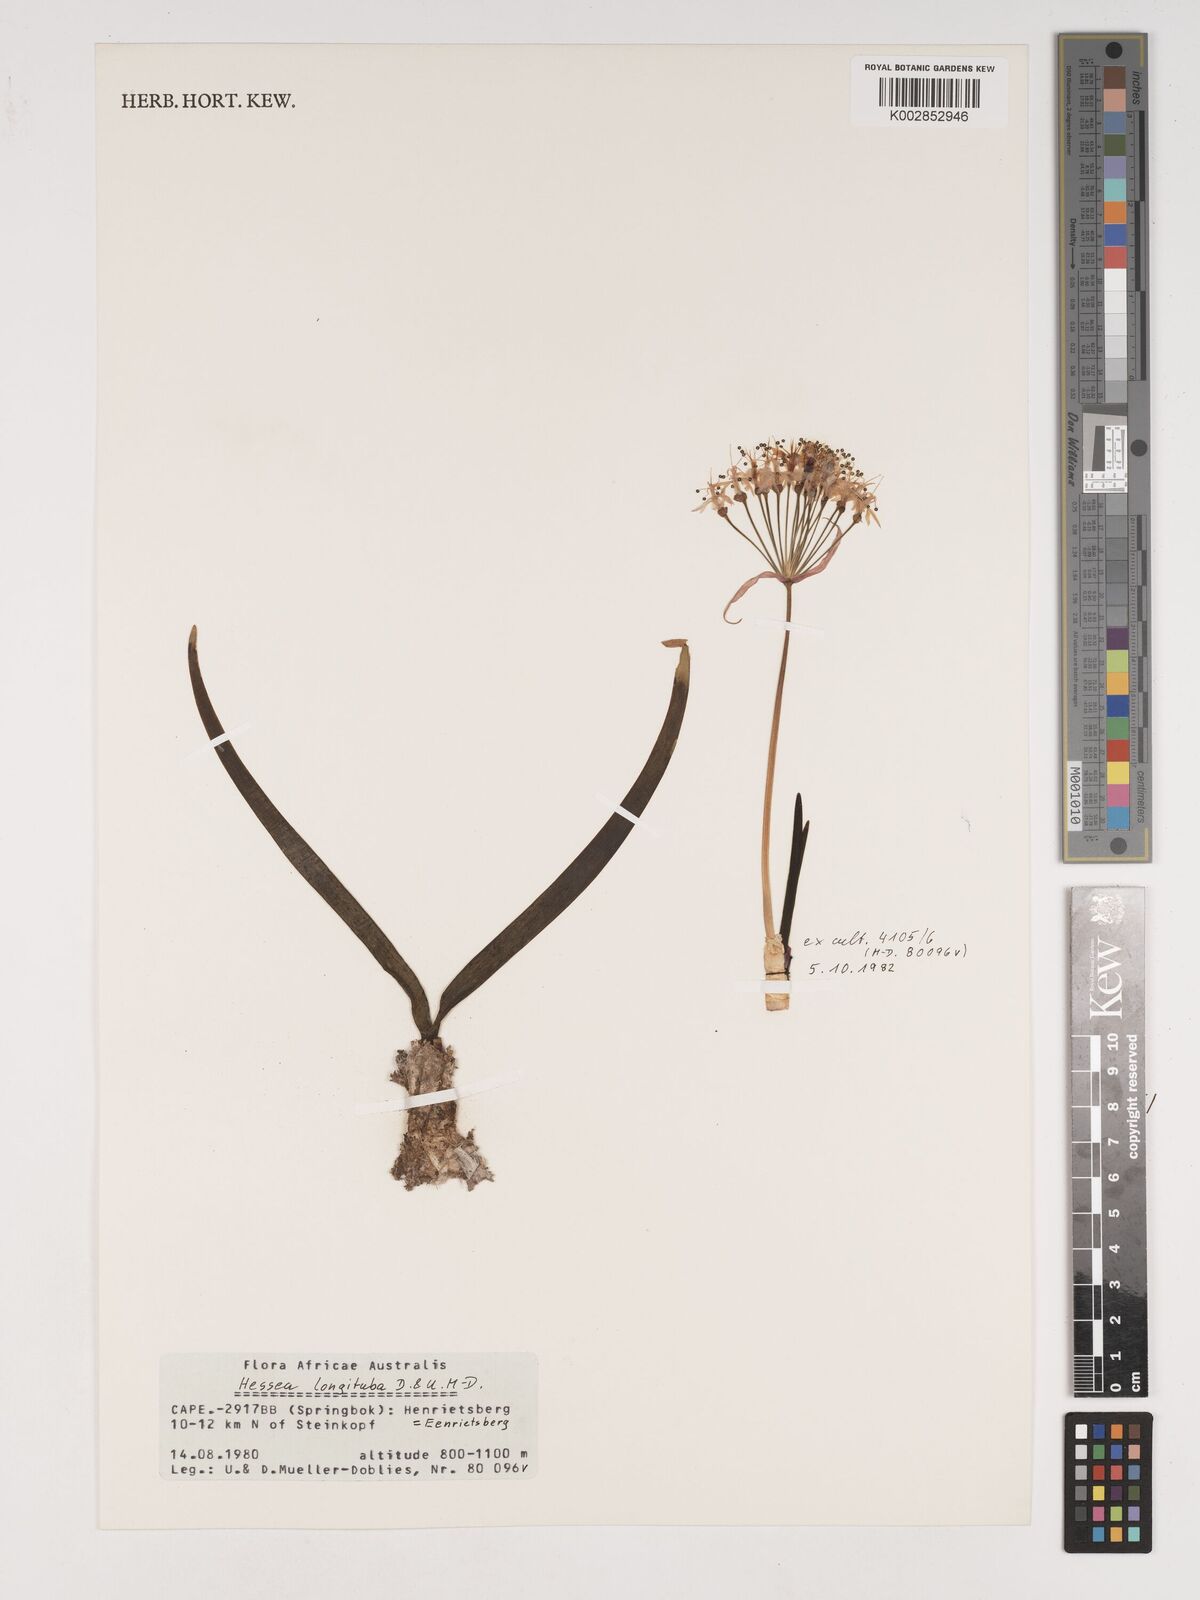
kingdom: Plantae
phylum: Tracheophyta
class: Liliopsida
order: Asparagales
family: Amaryllidaceae
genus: Hessea
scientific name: Hessea breviflora
